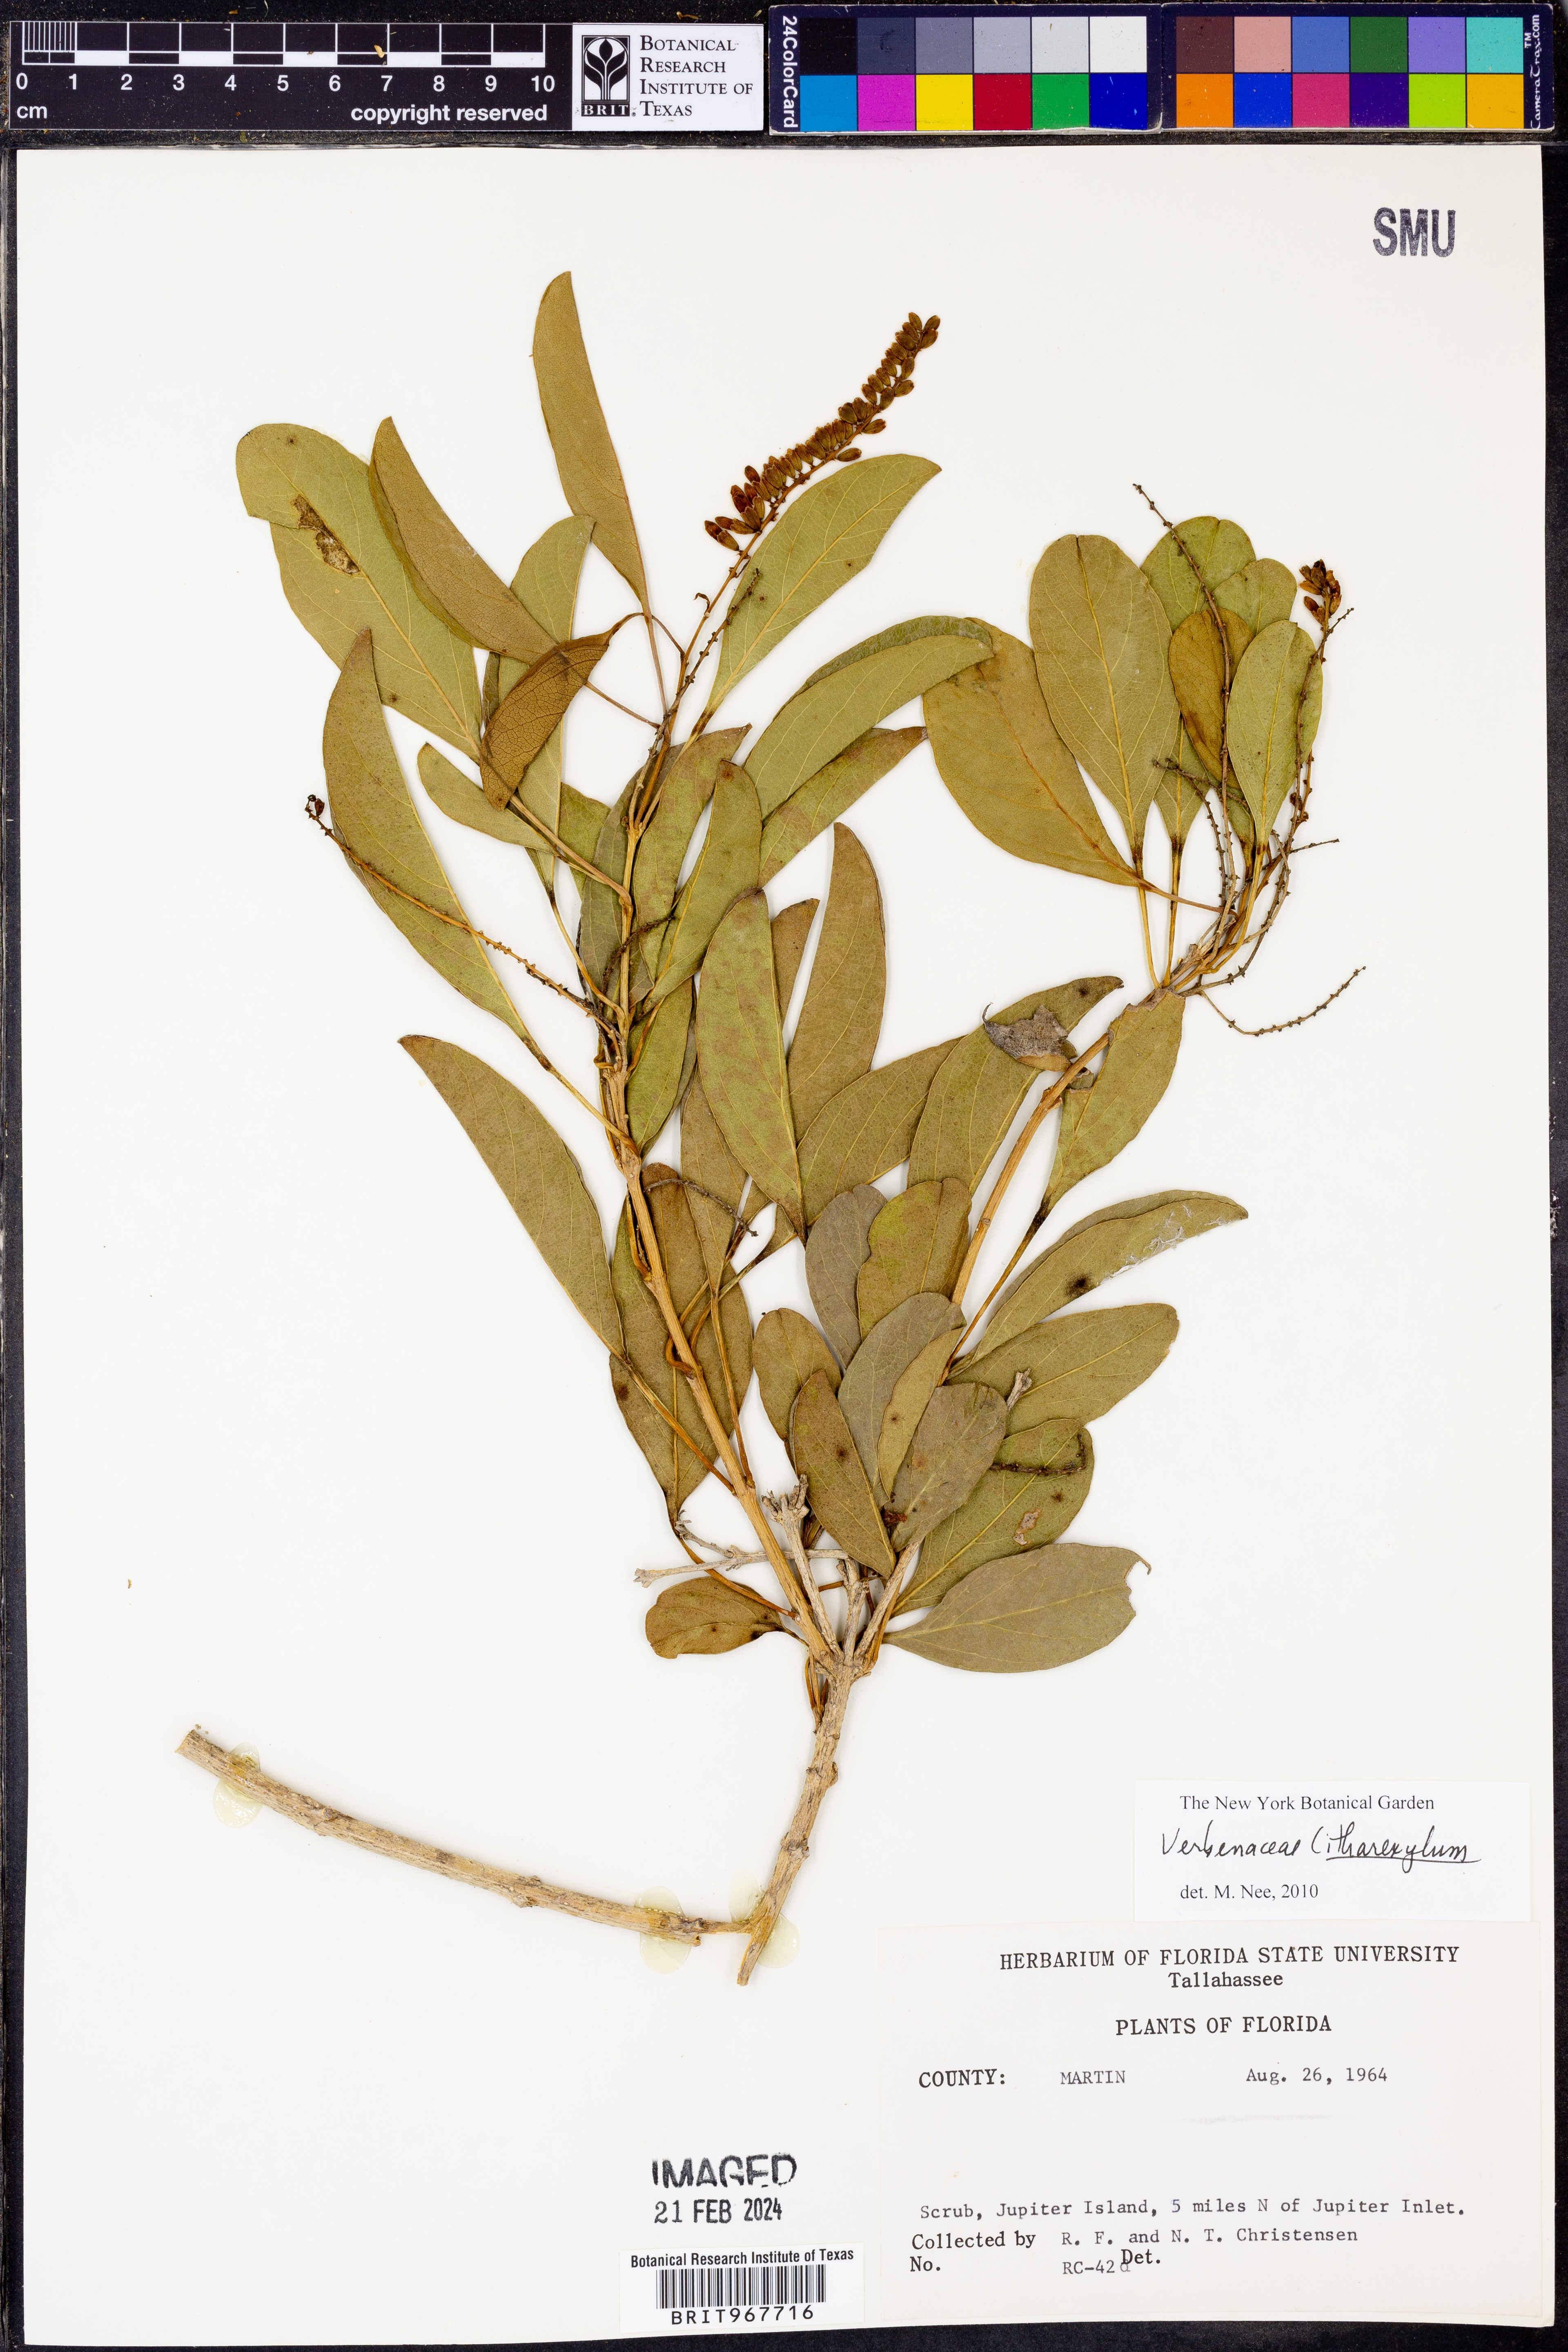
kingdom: Plantae
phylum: Tracheophyta
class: Magnoliopsida
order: Lamiales
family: Verbenaceae
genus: Citharexylum
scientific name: Citharexylum
